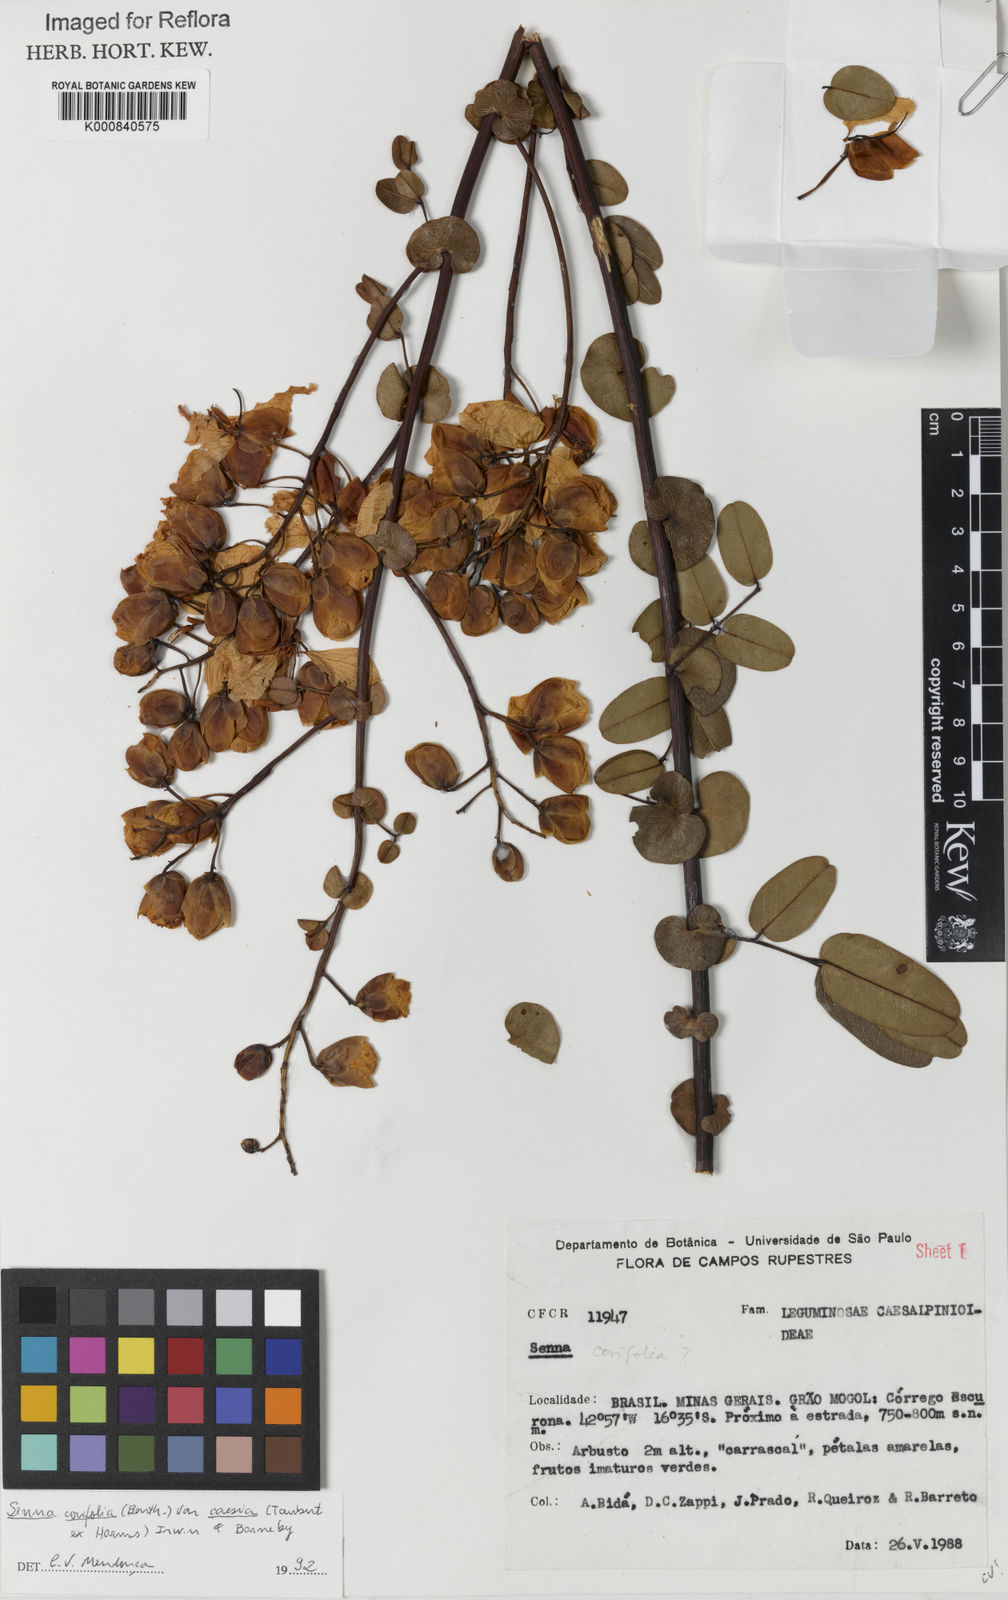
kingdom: Plantae
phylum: Tracheophyta
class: Magnoliopsida
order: Fabales
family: Fabaceae
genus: Senna
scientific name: Senna corifolia
